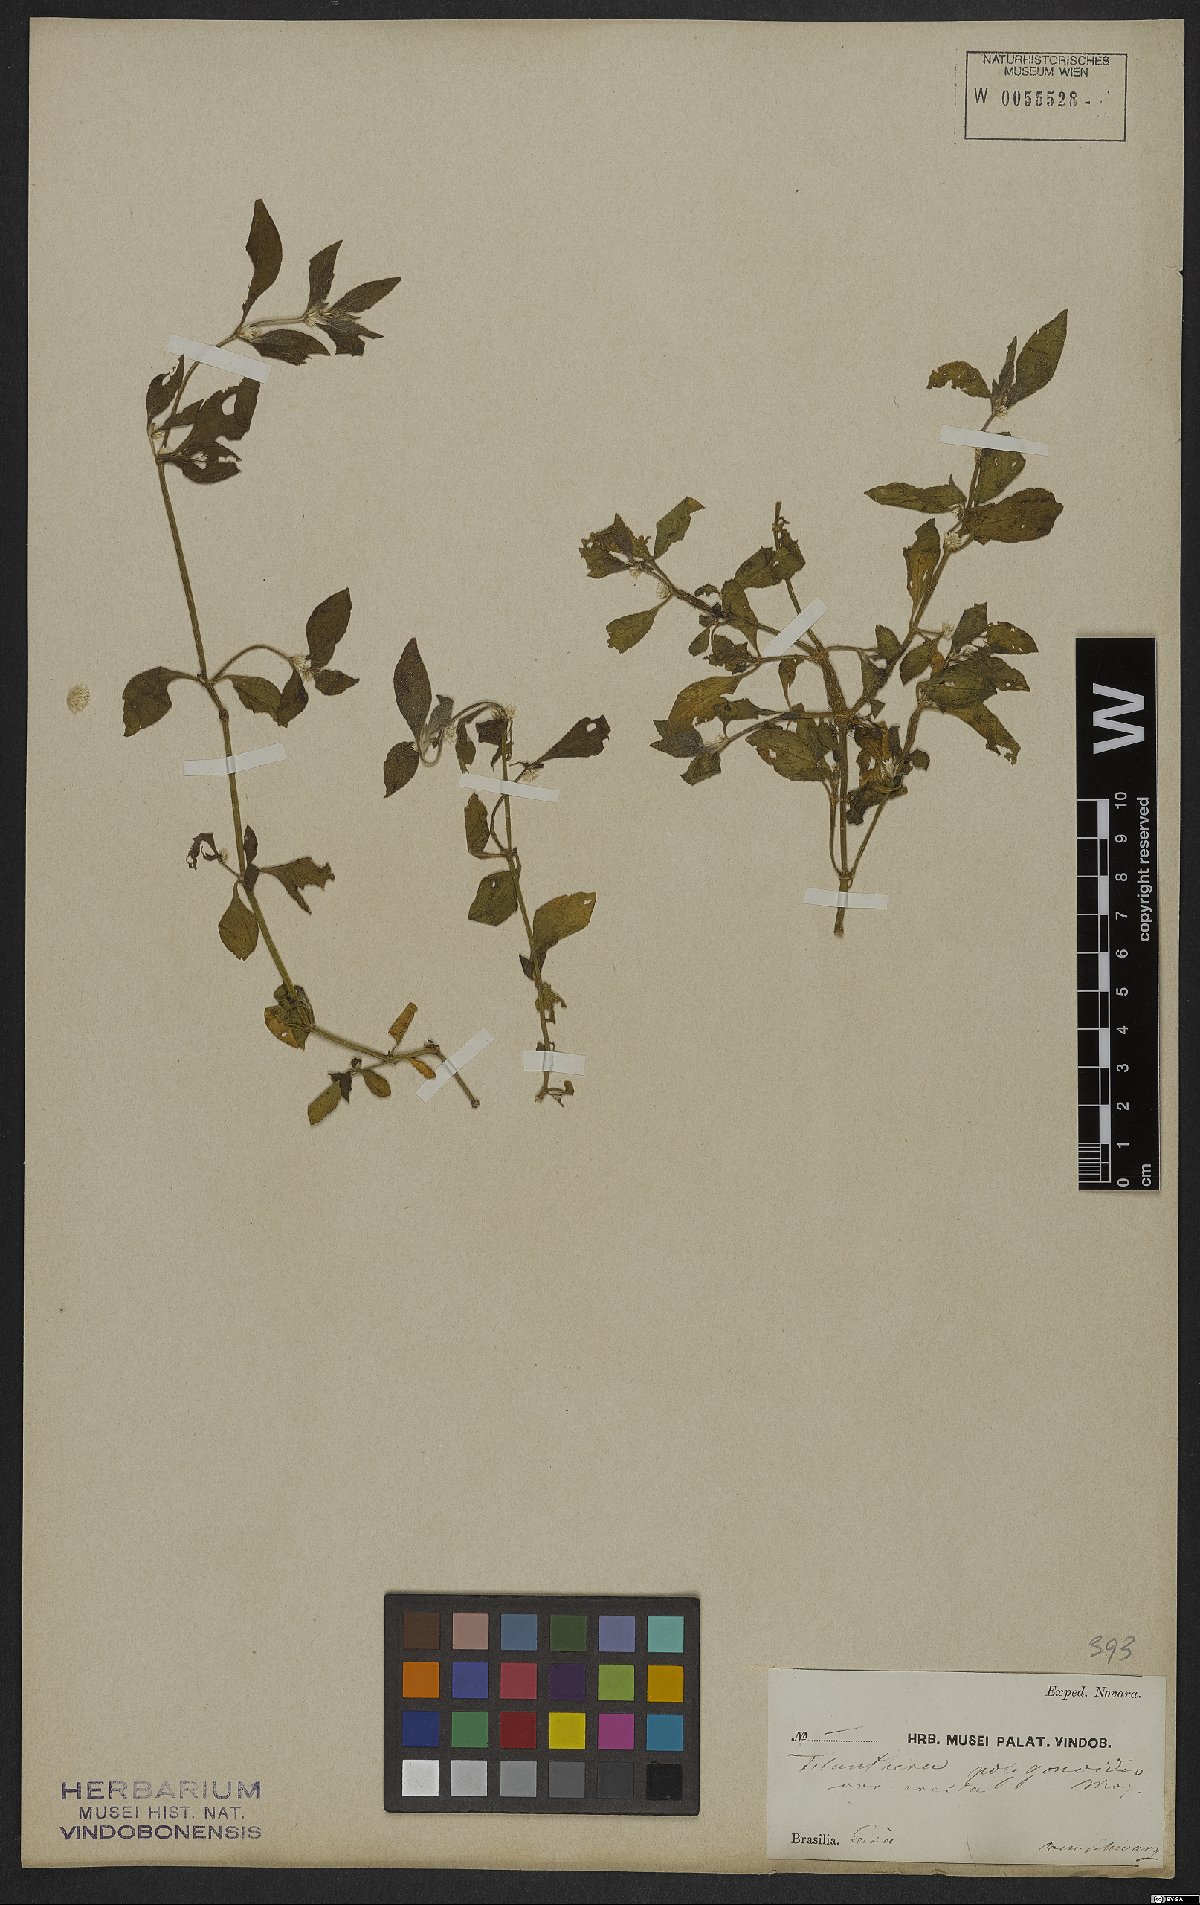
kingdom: Plantae
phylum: Tracheophyta
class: Magnoliopsida
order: Caryophyllales
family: Amaranthaceae
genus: Alternanthera
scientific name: Alternanthera sessilis
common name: Sessile joyweed
